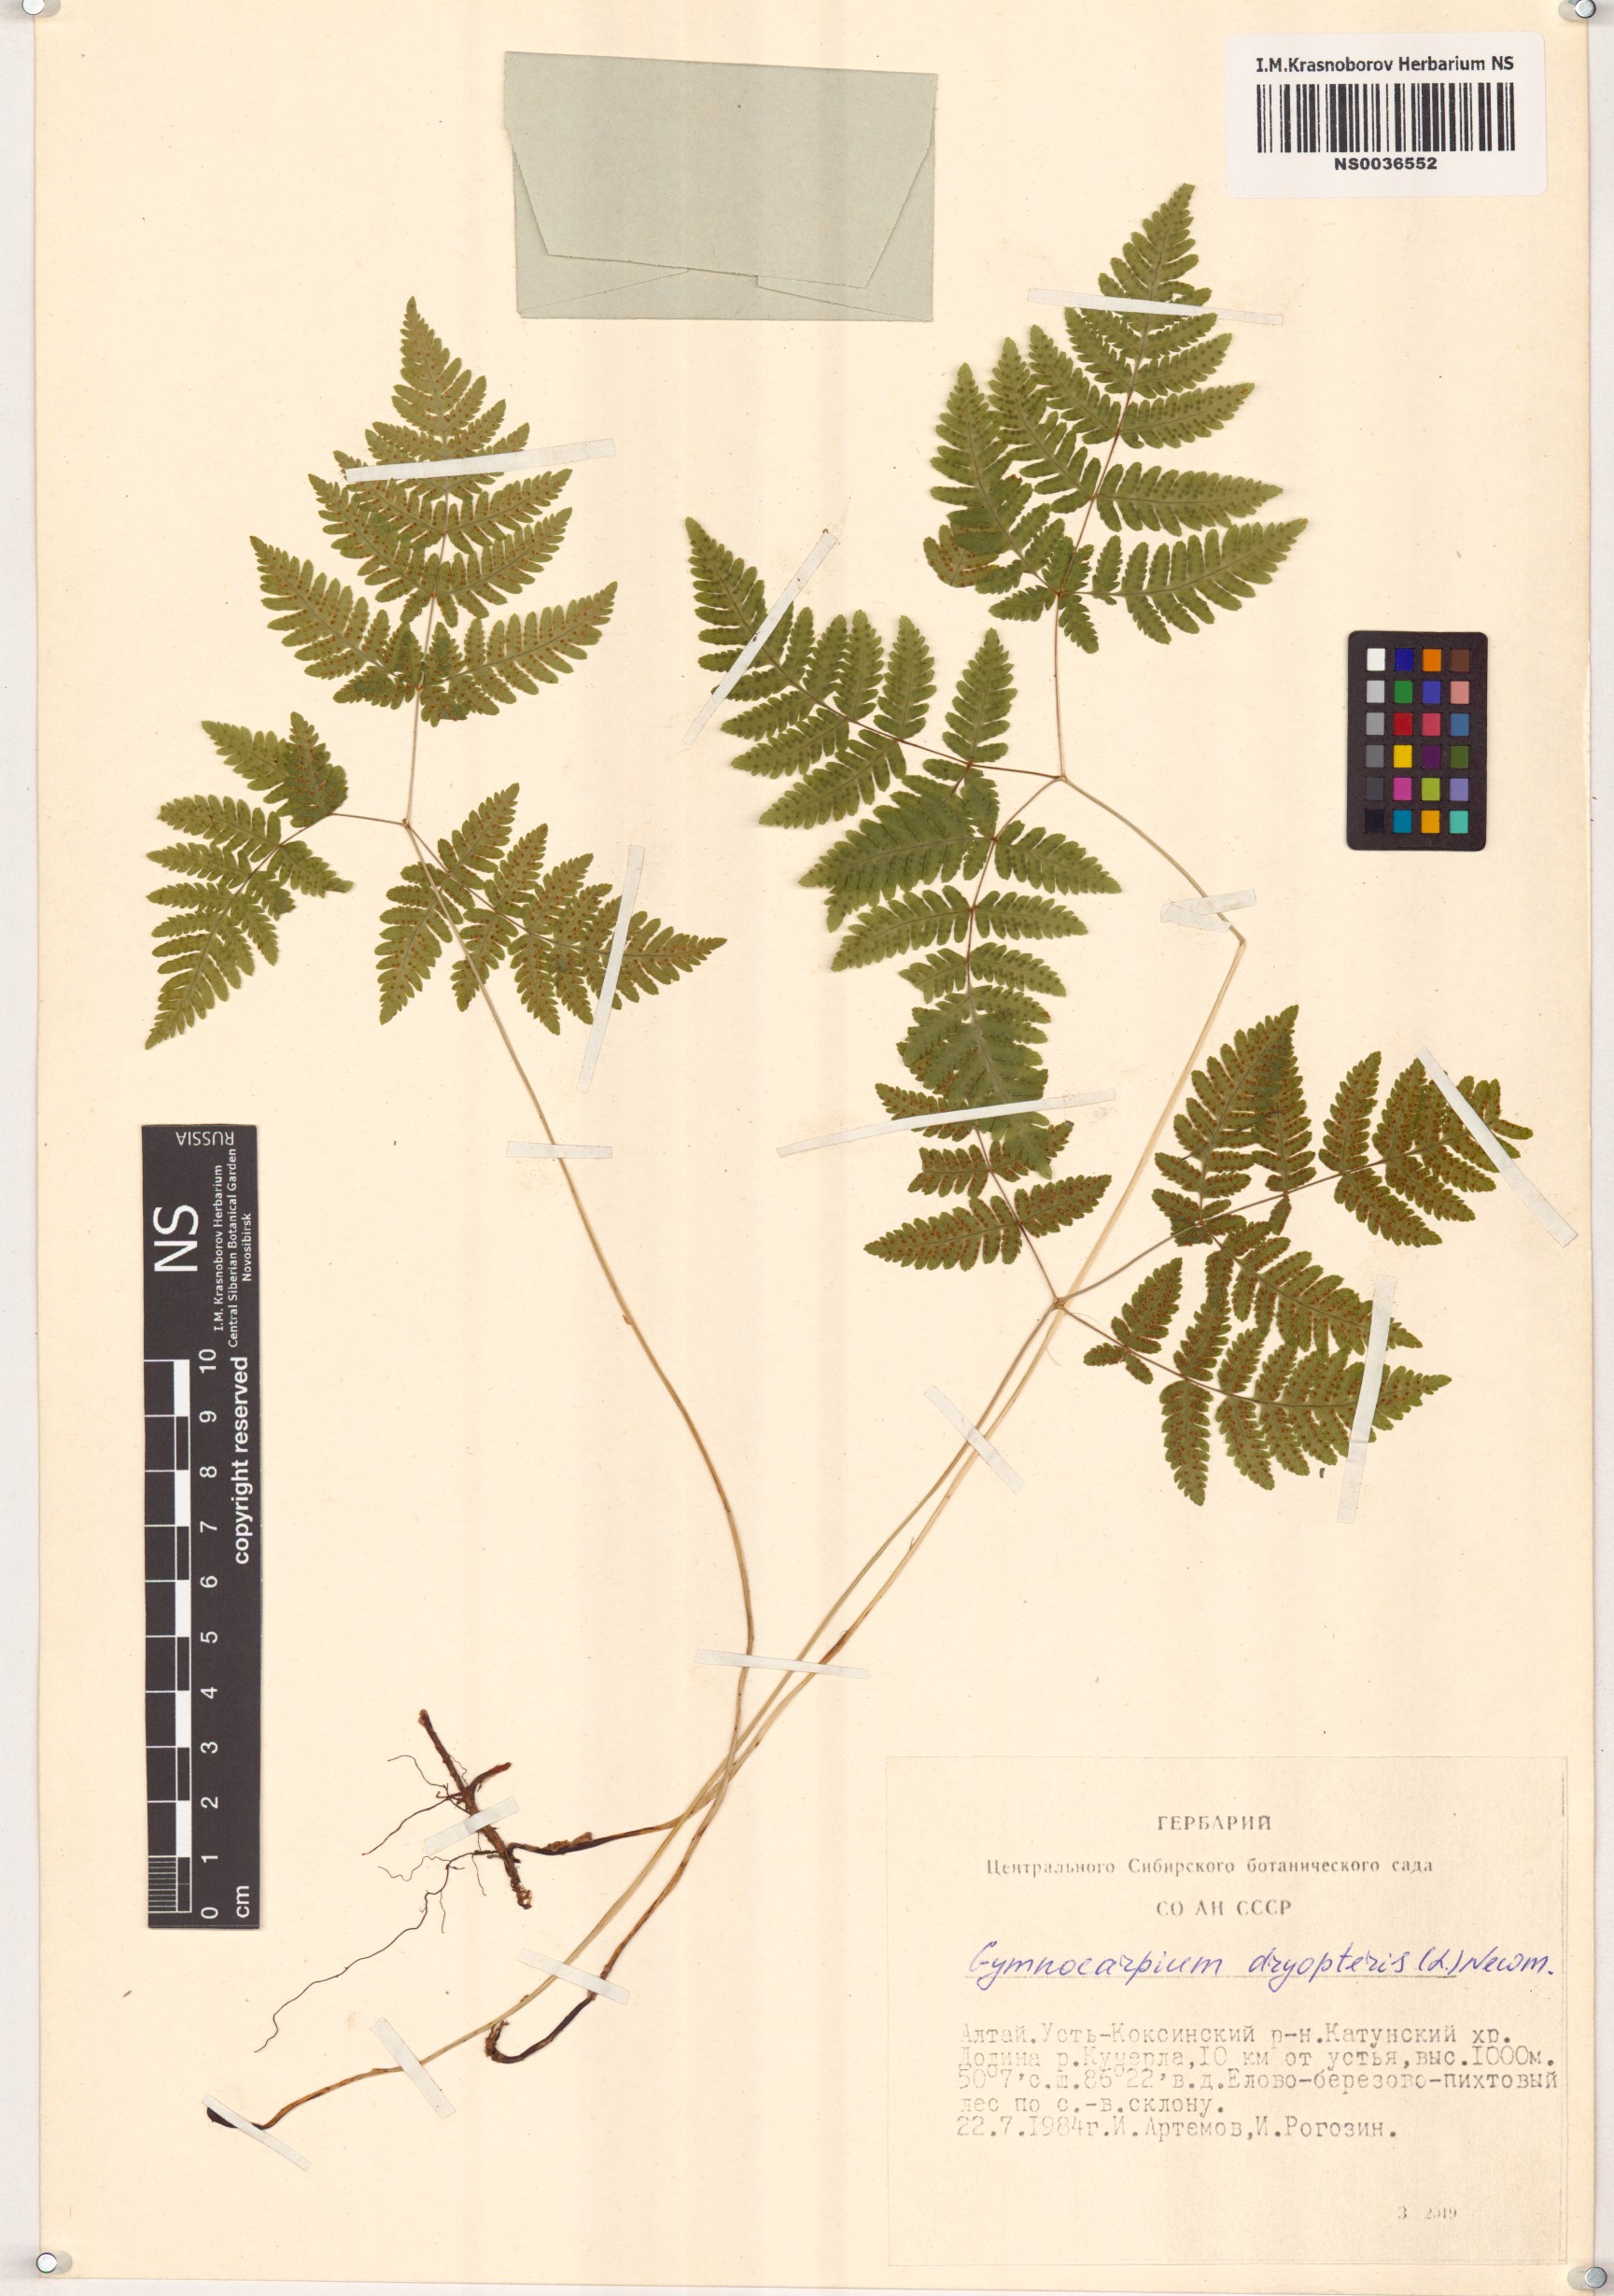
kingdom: Plantae
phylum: Tracheophyta
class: Polypodiopsida
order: Polypodiales
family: Cystopteridaceae
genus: Gymnocarpium
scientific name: Gymnocarpium dryopteris
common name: Oak fern
